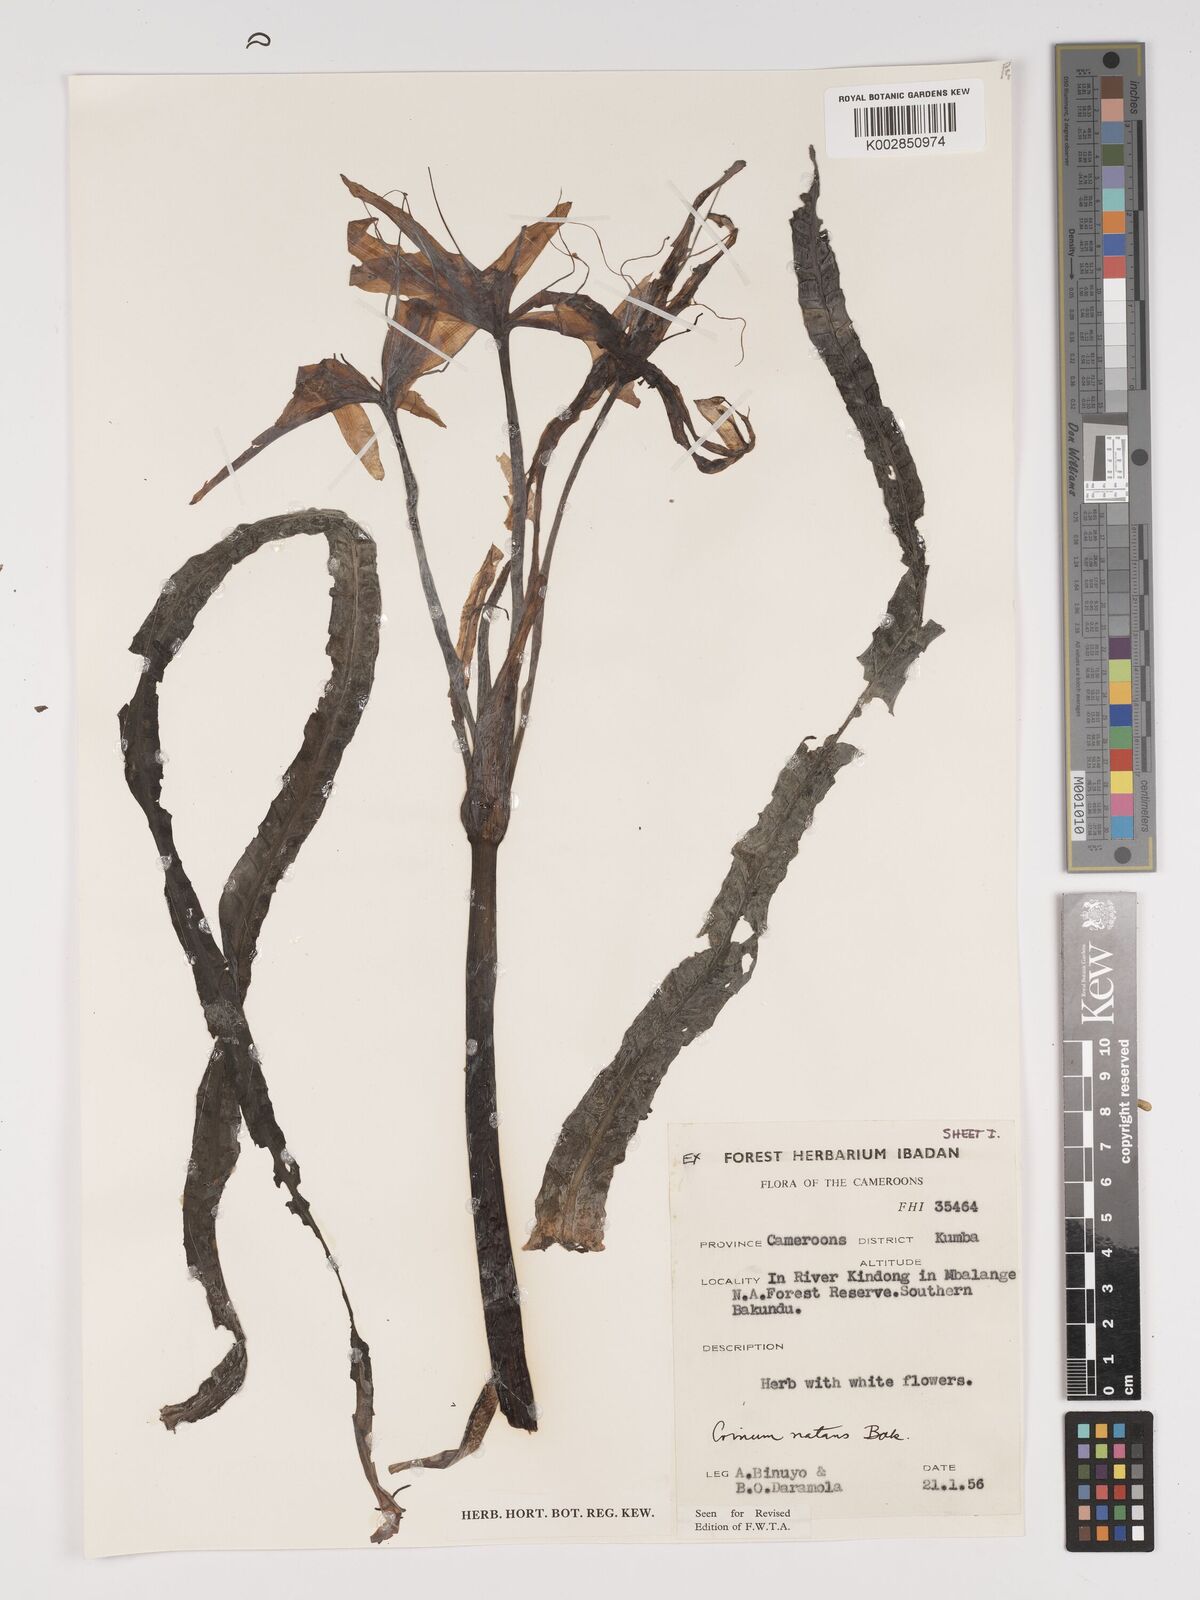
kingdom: Plantae
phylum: Tracheophyta
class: Liliopsida
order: Asparagales
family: Amaryllidaceae
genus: Crinum
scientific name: Crinum moorei
